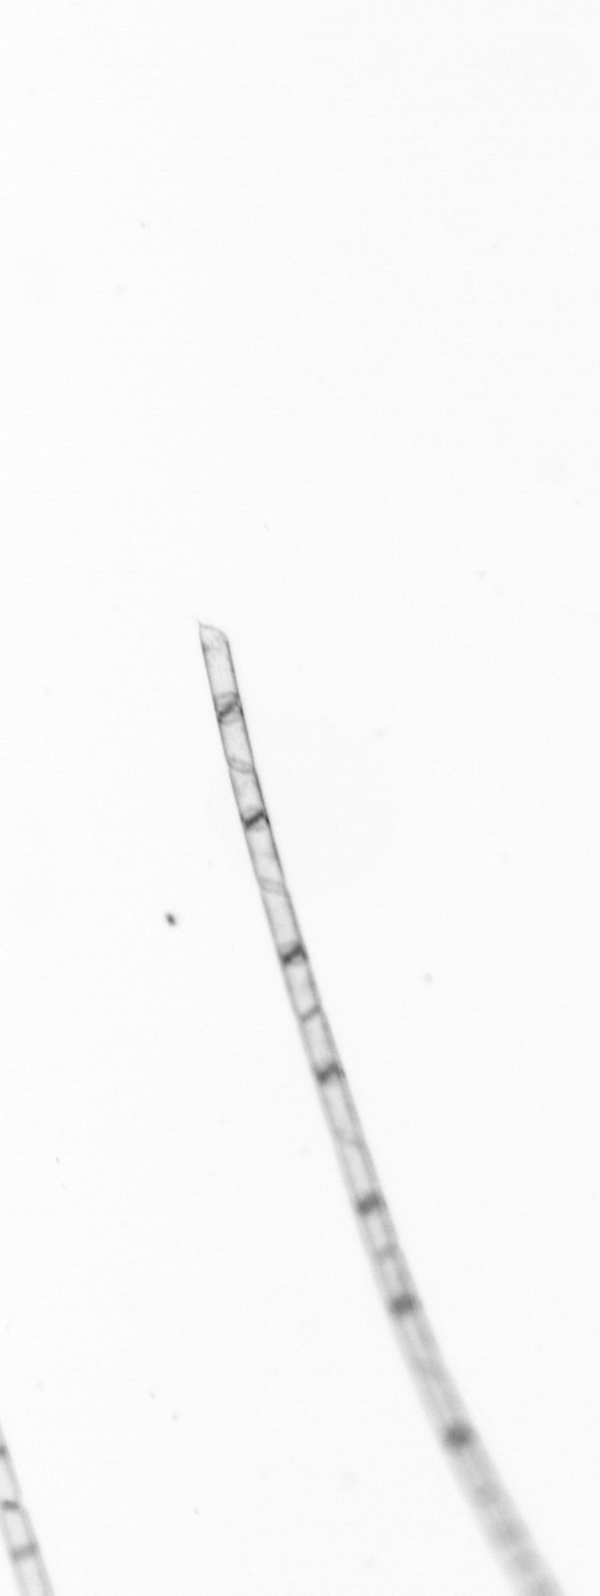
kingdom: Chromista
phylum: Ochrophyta
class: Bacillariophyceae
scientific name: Bacillariophyceae
